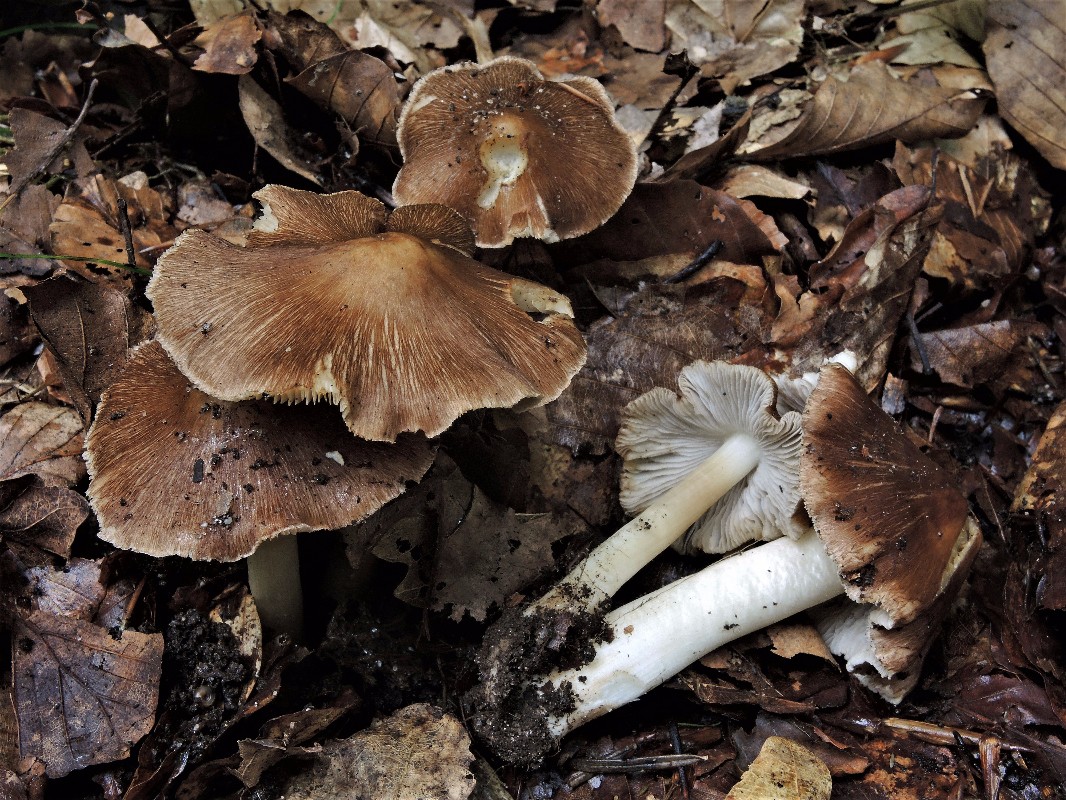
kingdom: Fungi
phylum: Basidiomycota
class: Agaricomycetes
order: Agaricales
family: Inocybaceae
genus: Inosperma
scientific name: Inosperma
